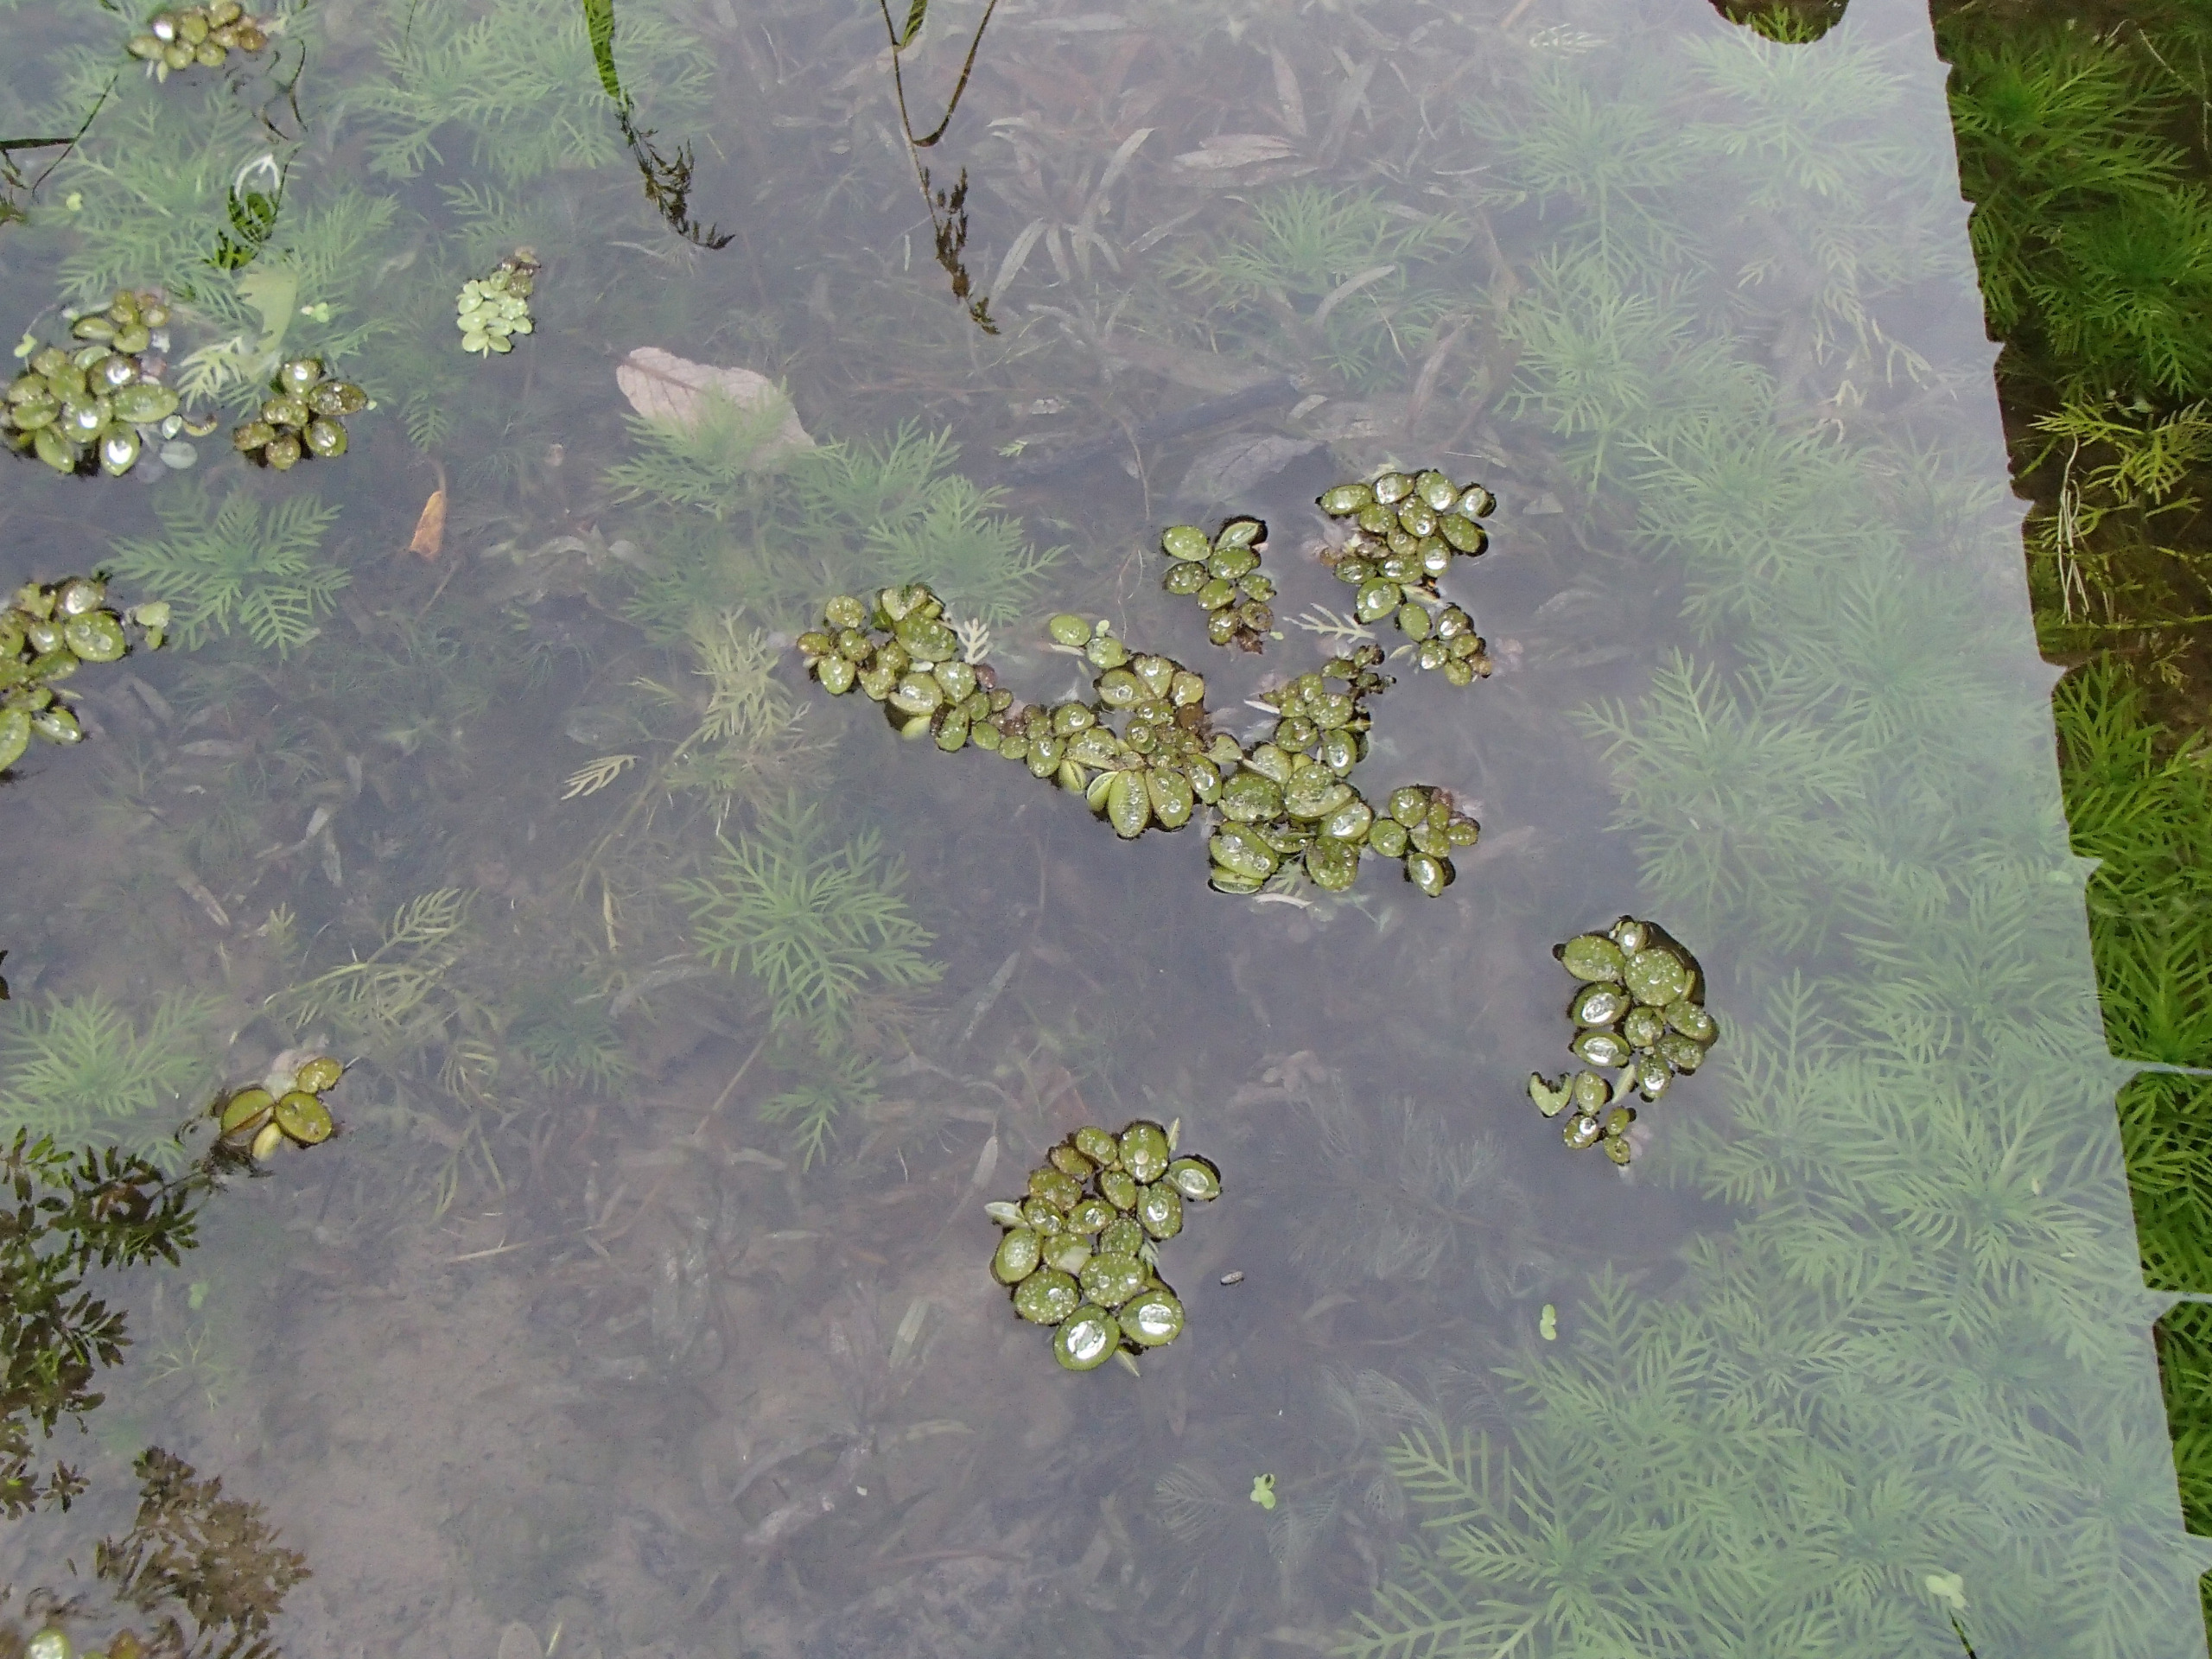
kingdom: Plantae
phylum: Tracheophyta
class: Polypodiopsida
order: Salviniales
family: Salviniaceae
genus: Salvinia
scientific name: Salvinia minima
